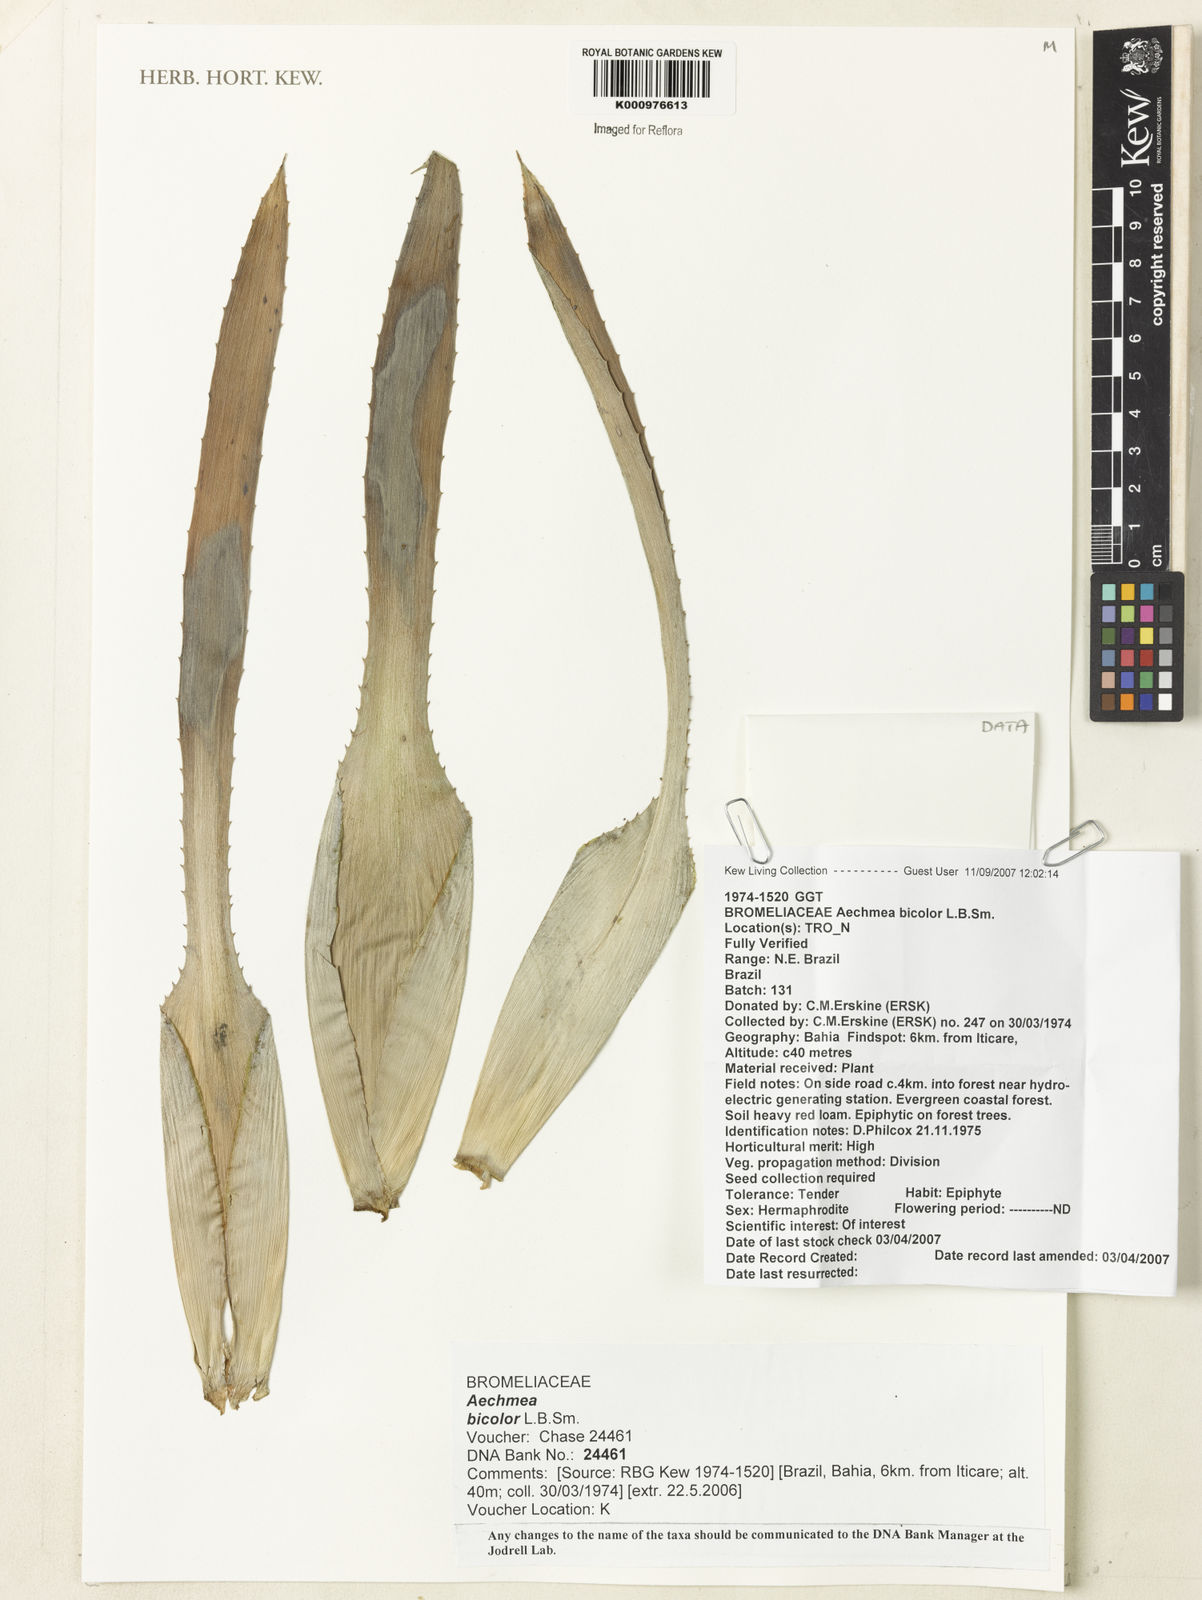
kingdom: Plantae
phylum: Tracheophyta
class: Liliopsida
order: Poales
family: Bromeliaceae
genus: Wittmackia
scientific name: Wittmackia bicolor
